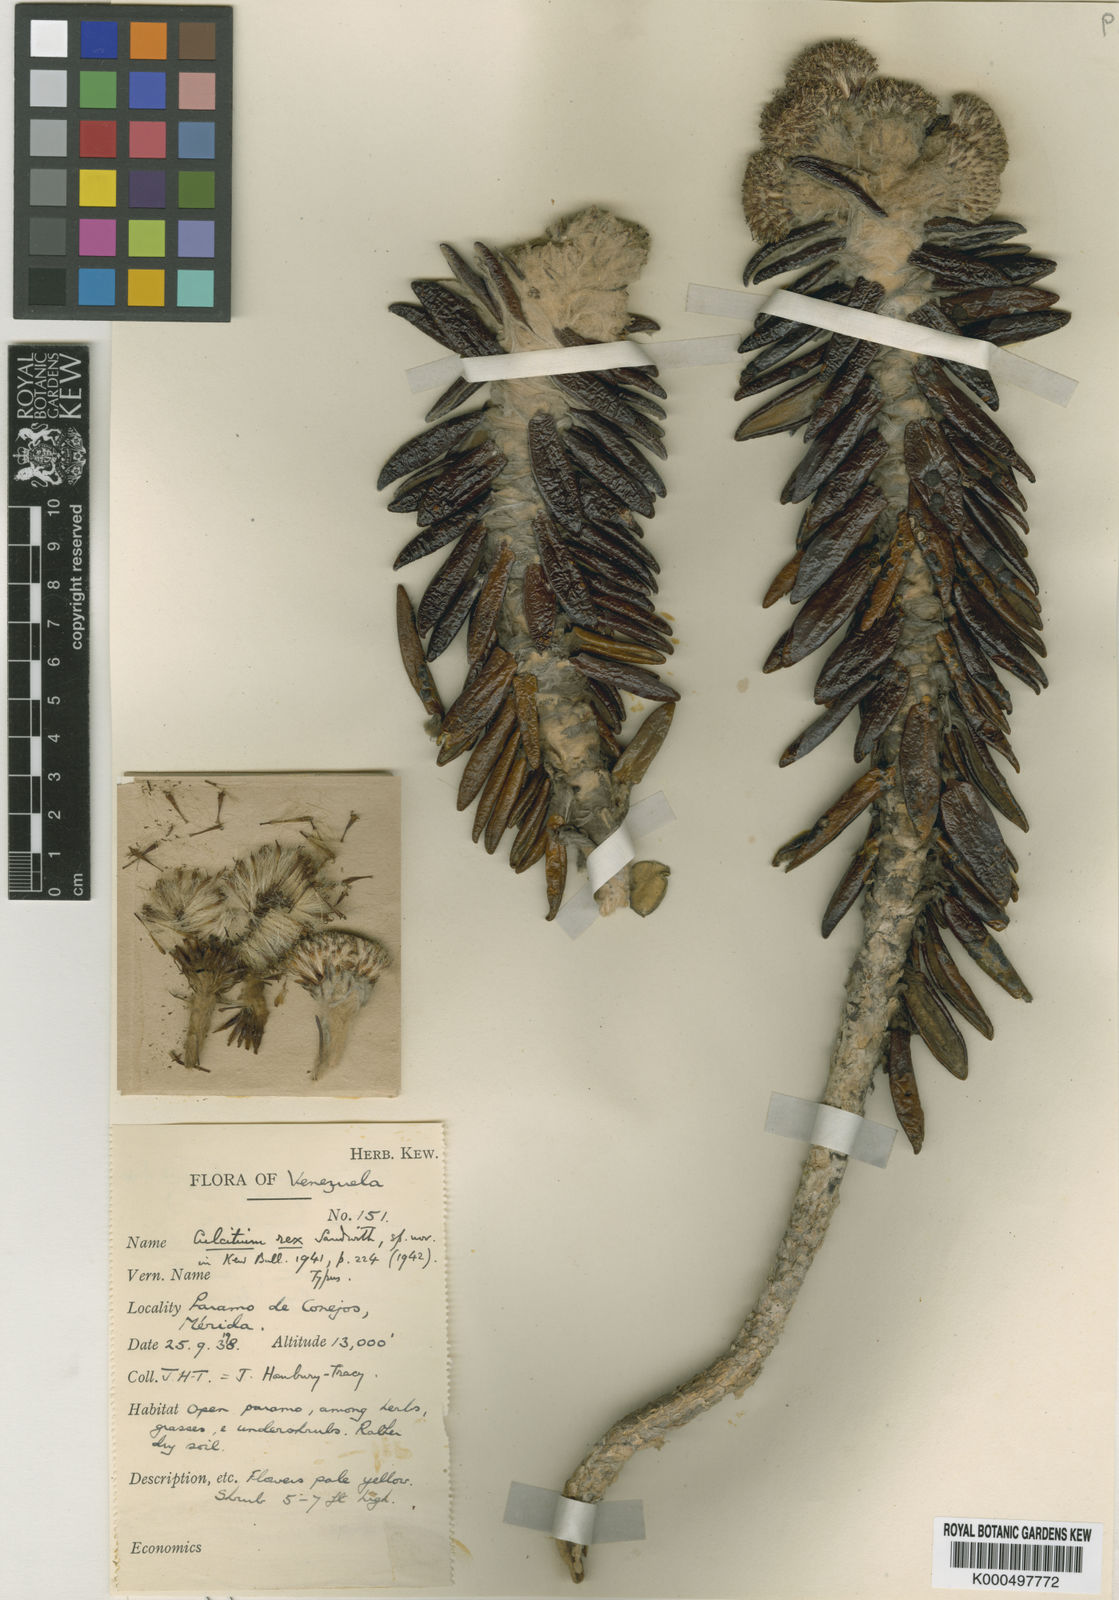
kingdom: Plantae
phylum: Tracheophyta
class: Magnoliopsida
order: Asterales
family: Asteraceae
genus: Monticalia
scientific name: Monticalia rex
